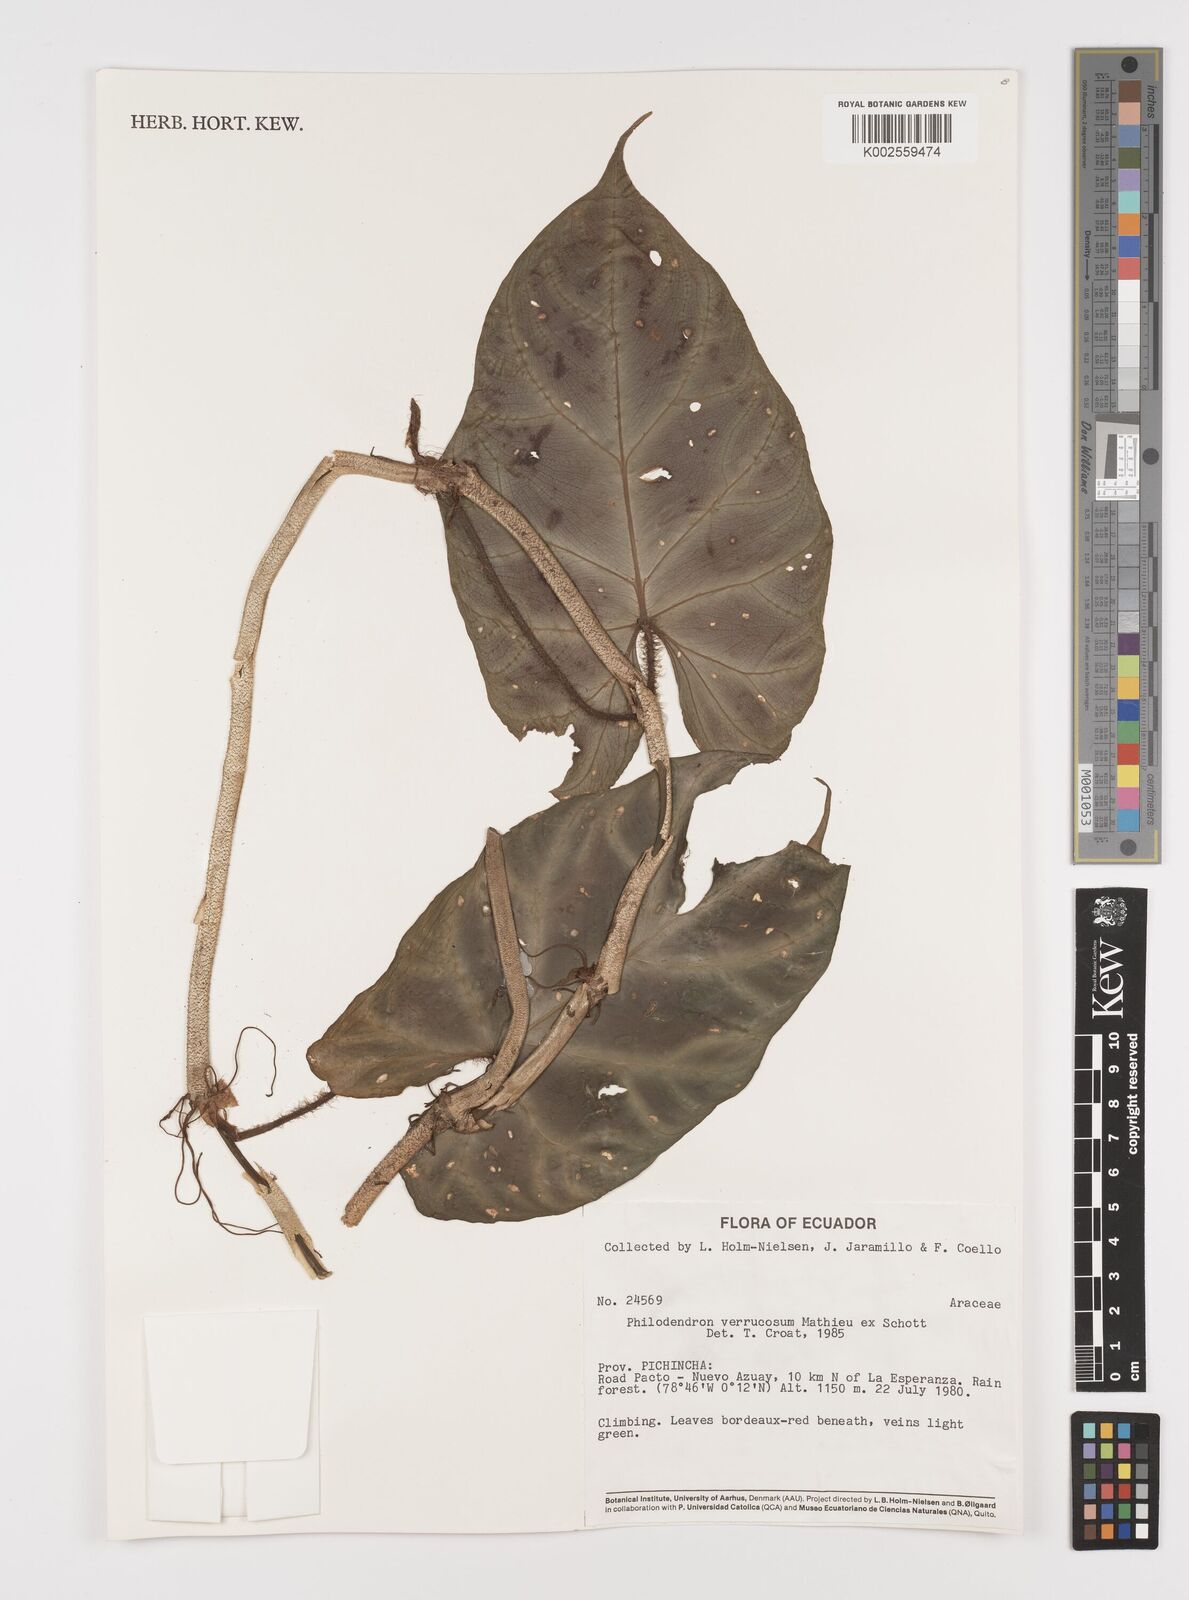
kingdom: Plantae
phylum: Tracheophyta
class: Liliopsida
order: Alismatales
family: Araceae
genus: Philodendron
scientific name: Philodendron verrucosum
